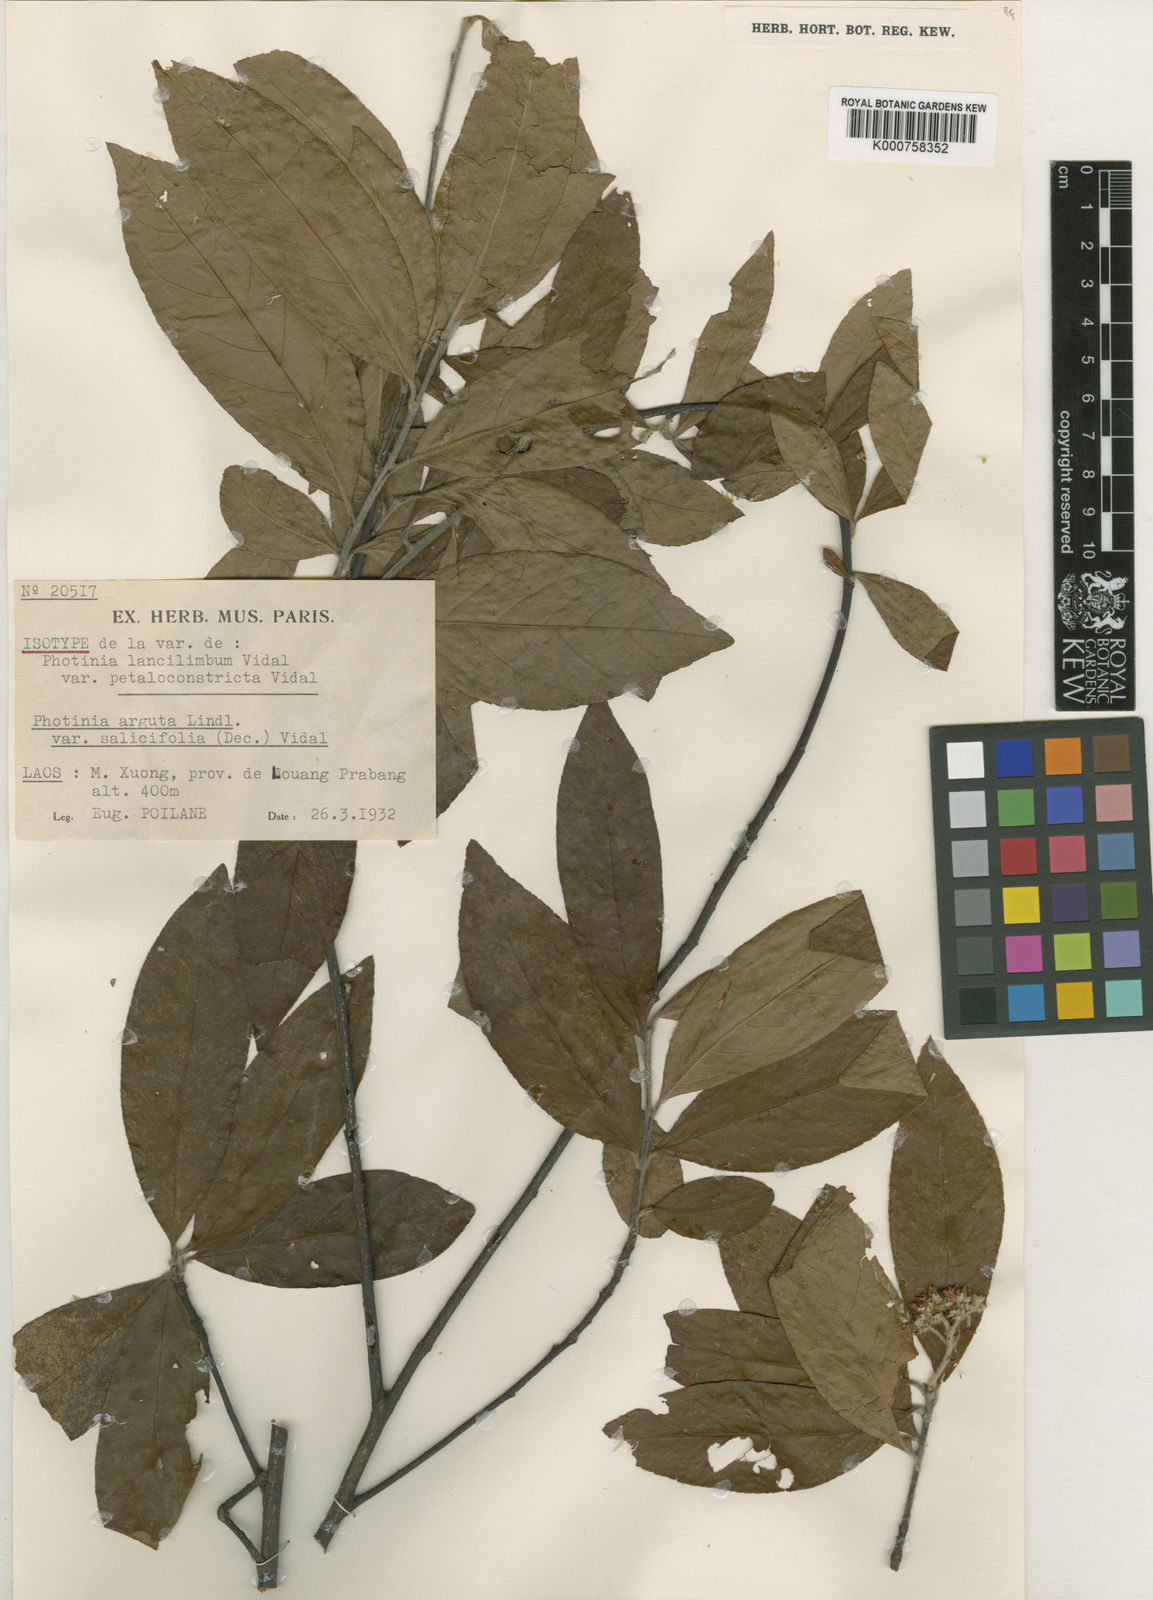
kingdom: Plantae
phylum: Tracheophyta
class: Magnoliopsida
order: Rosales
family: Rosaceae
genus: Photinia
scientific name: Photinia
